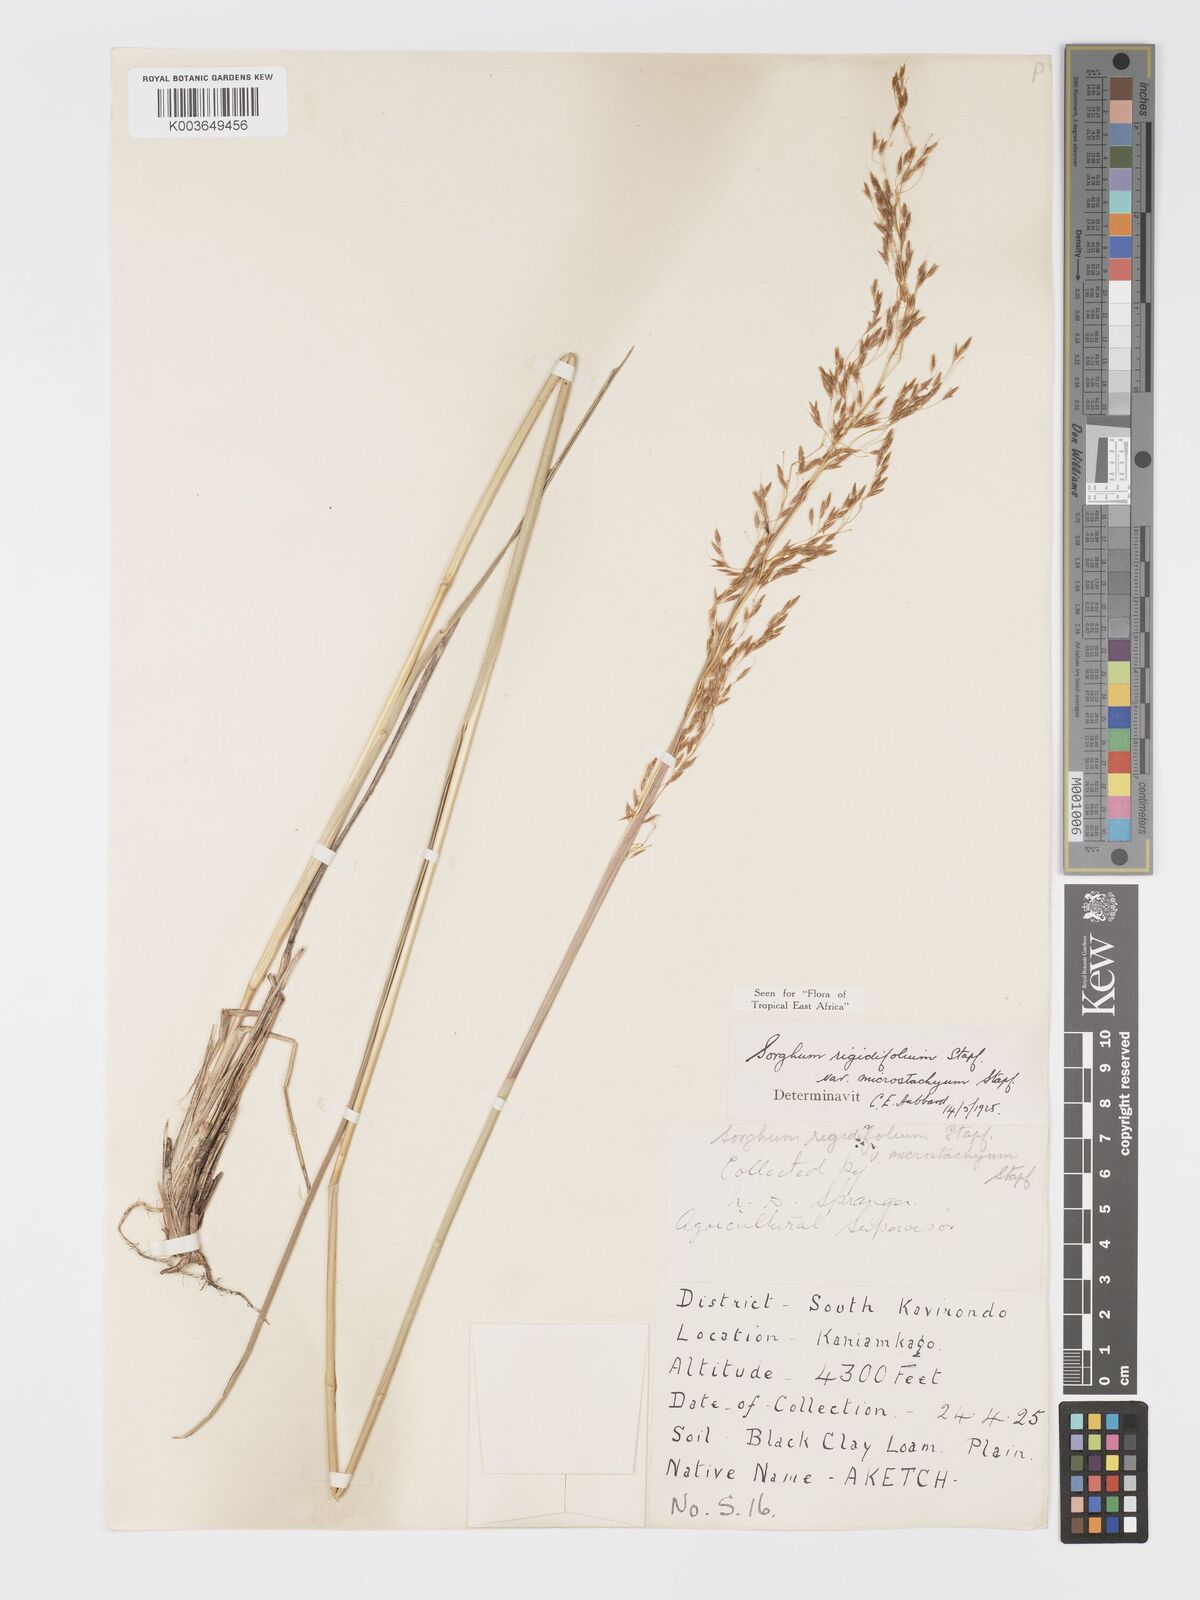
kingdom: Plantae
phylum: Tracheophyta
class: Liliopsida
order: Poales
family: Poaceae
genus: Sorghastrum
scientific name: Sorghastrum stipoides
